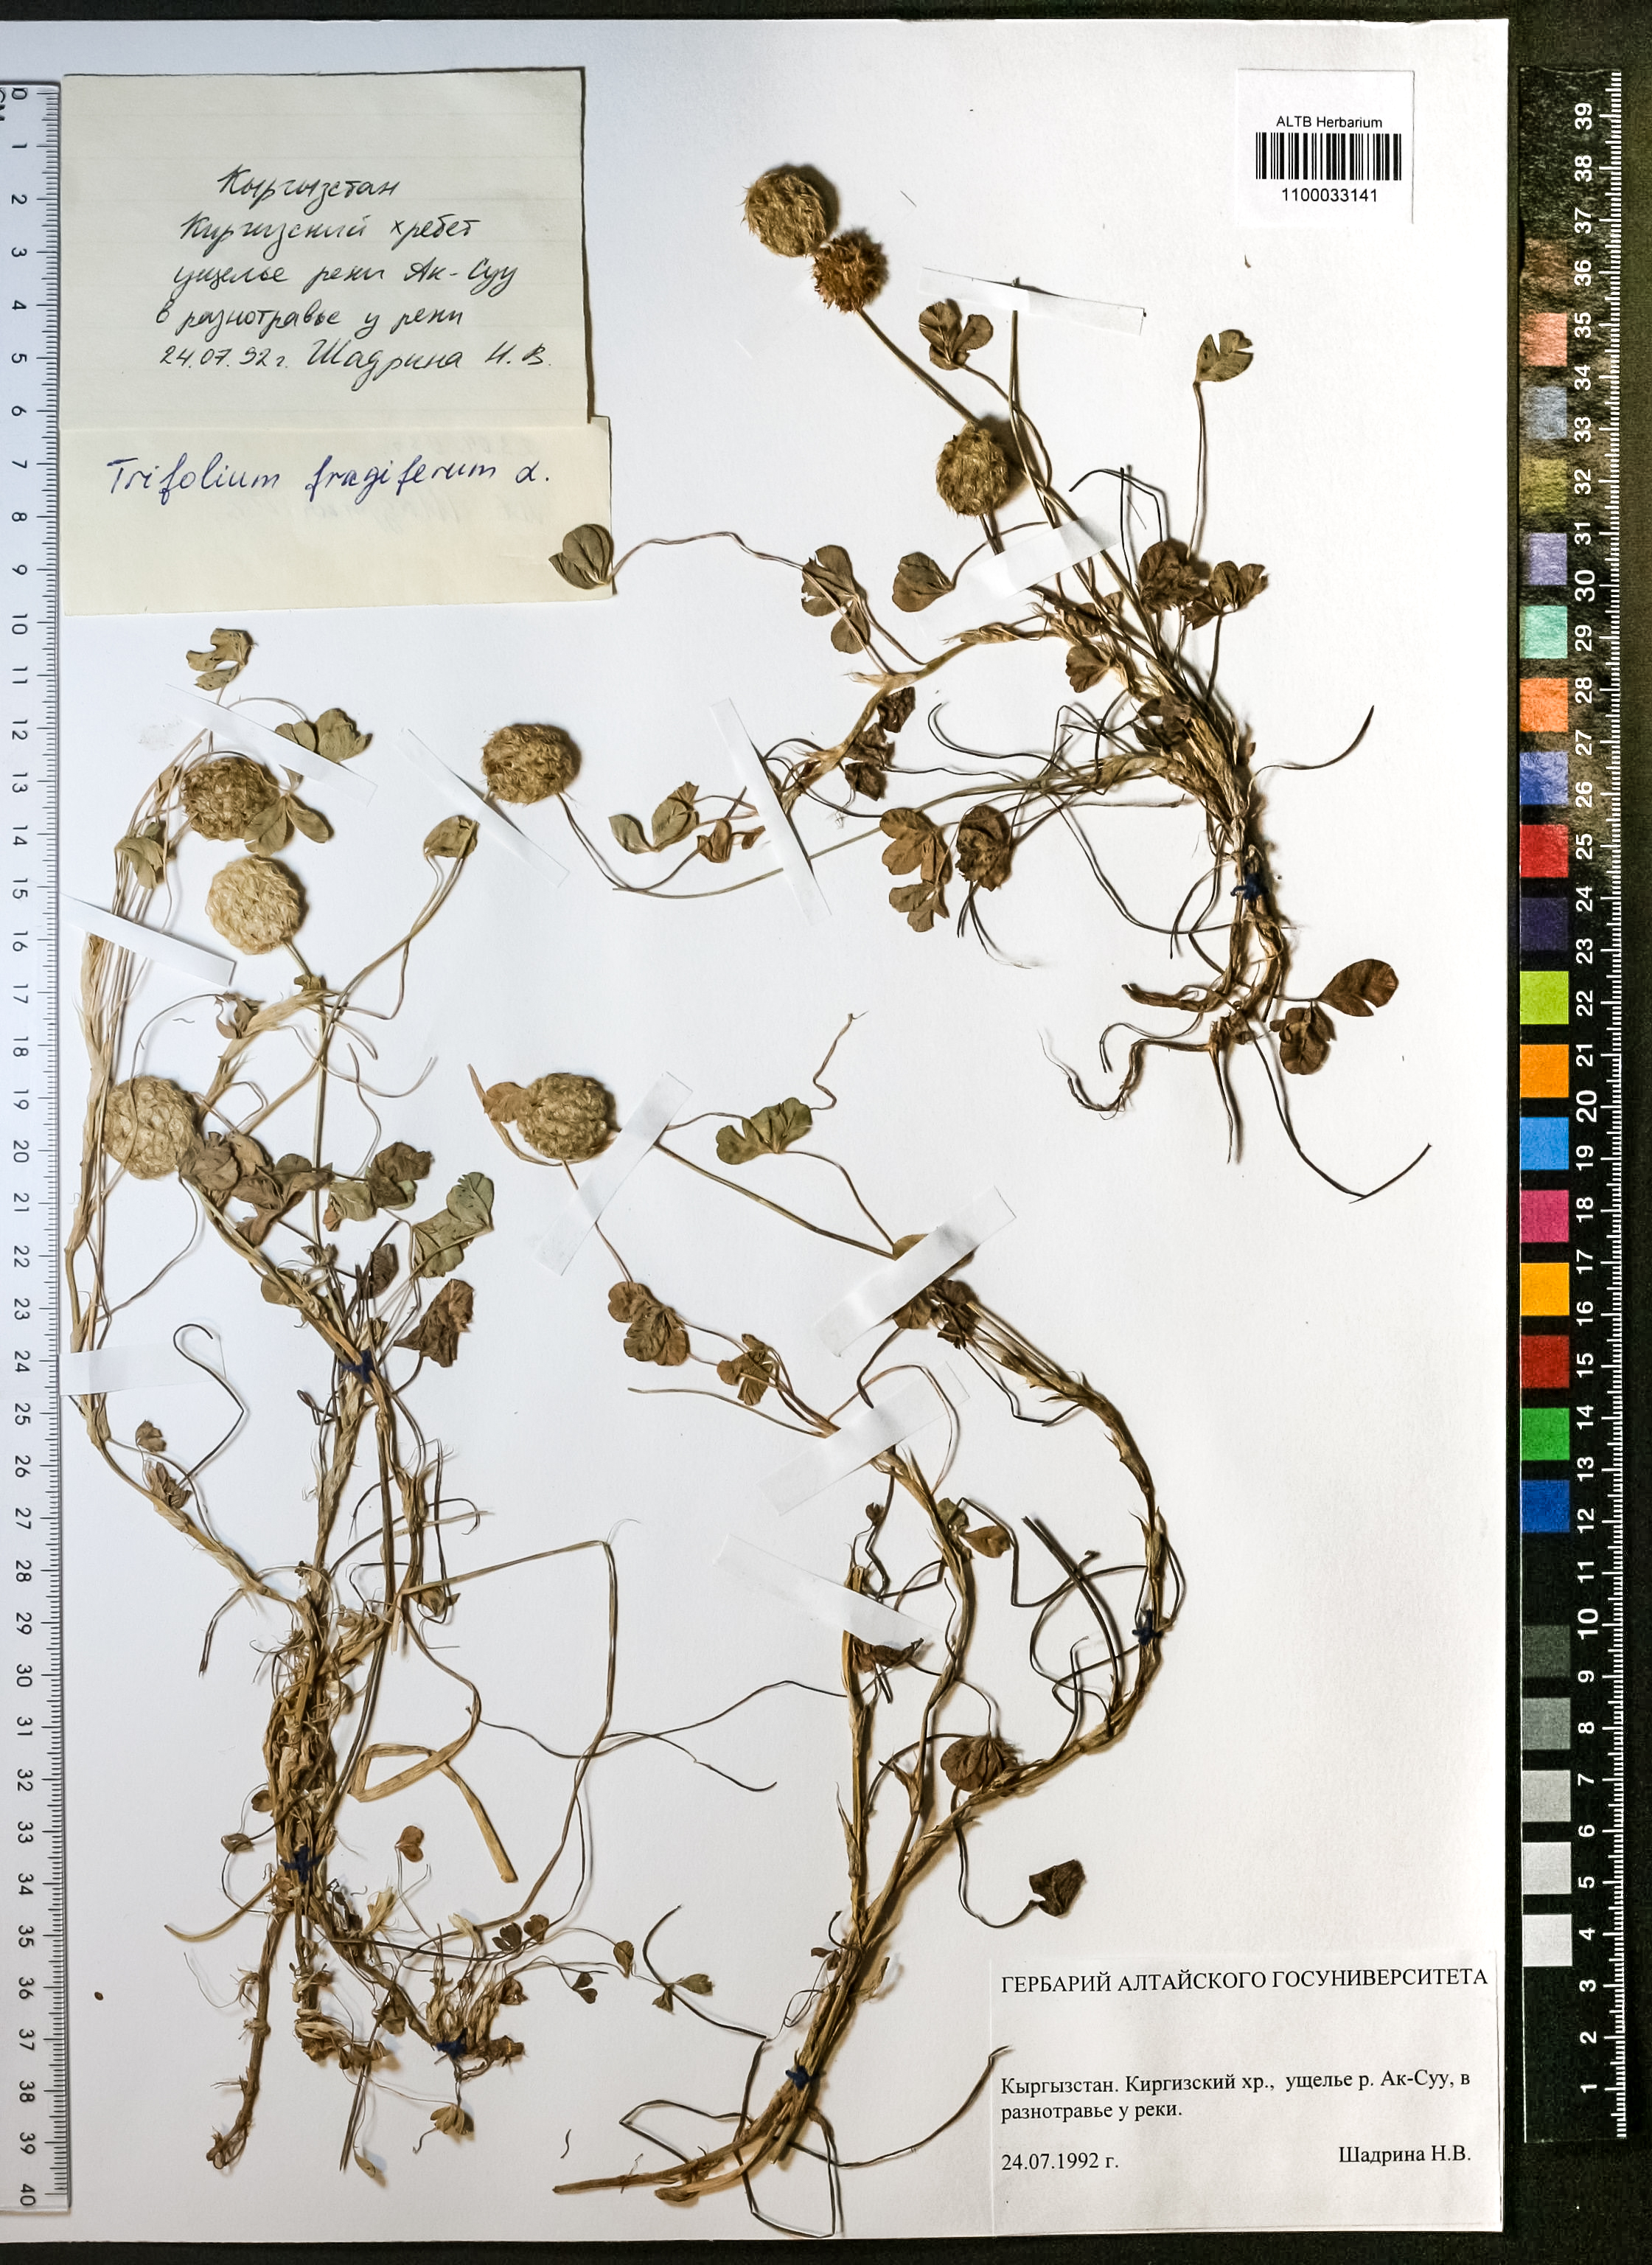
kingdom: Plantae
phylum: Tracheophyta
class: Magnoliopsida
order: Fabales
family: Fabaceae
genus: Trifolium
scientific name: Trifolium fragiferum
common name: Strawberry clover
